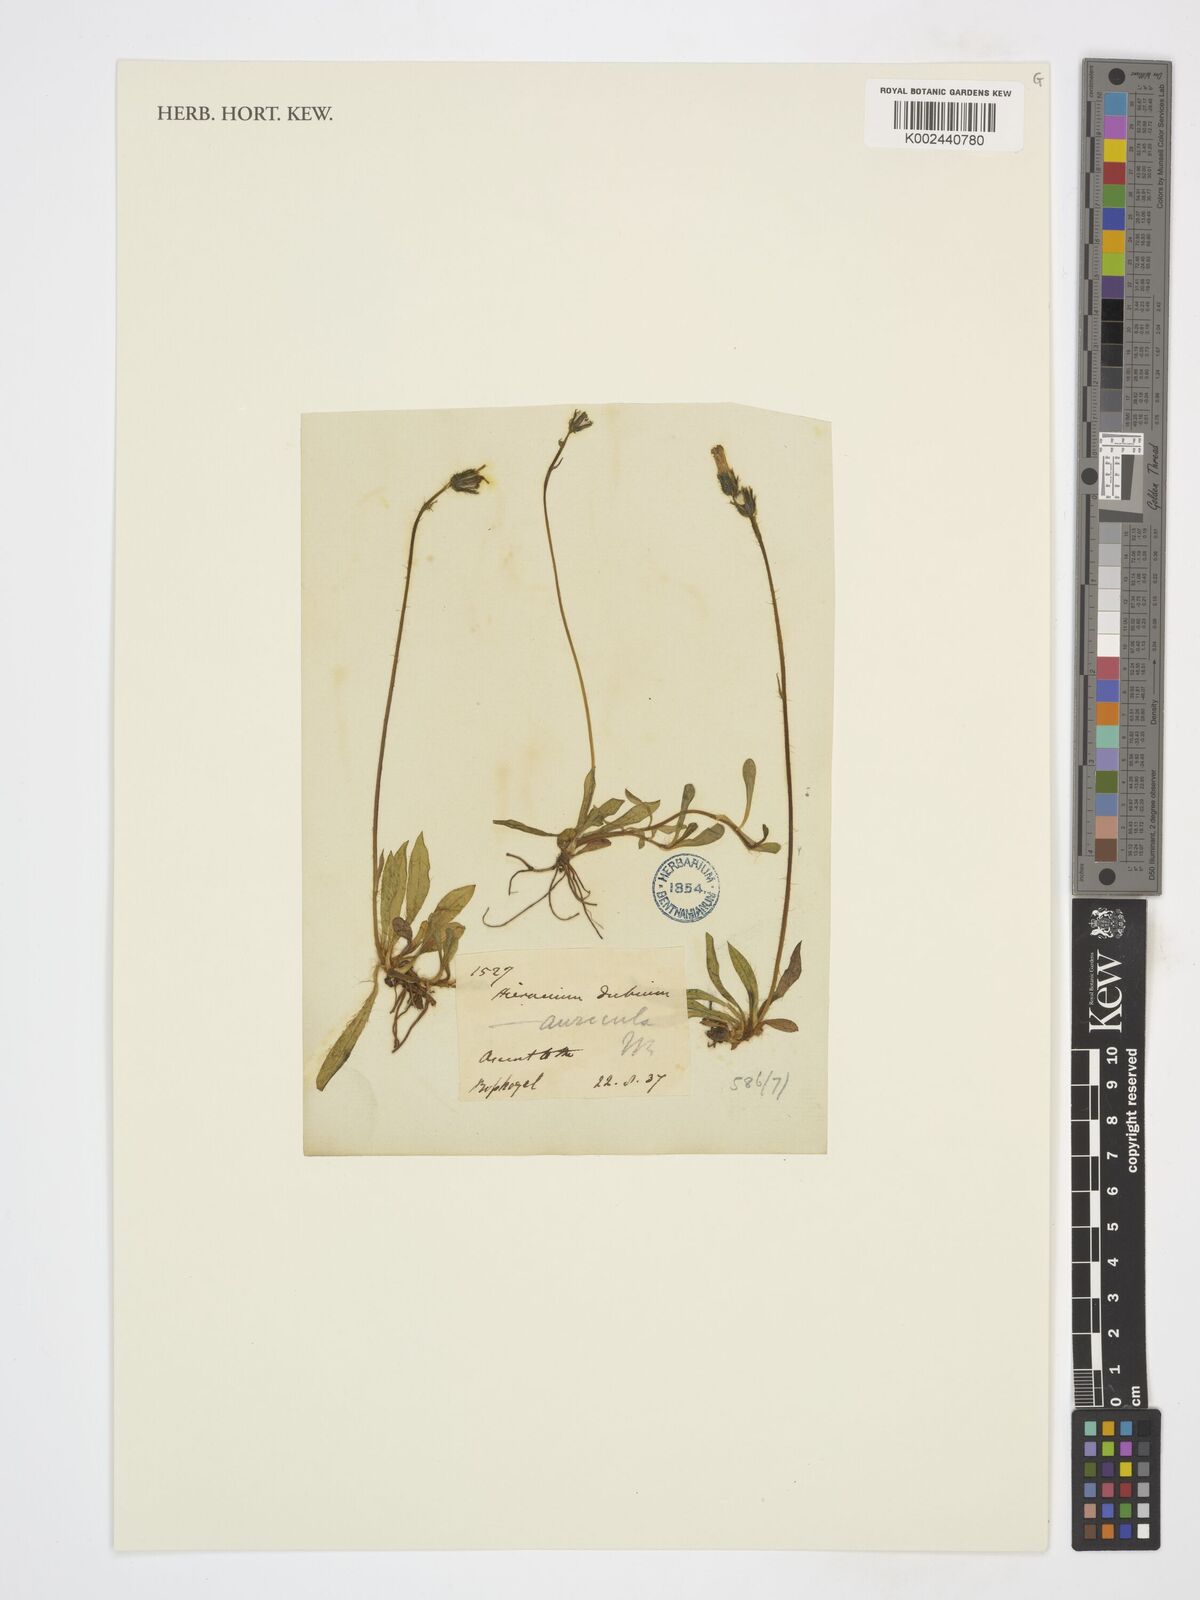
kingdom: Plantae
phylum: Tracheophyta
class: Magnoliopsida
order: Asterales
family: Asteraceae
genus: Hieracium
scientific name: Hieracium
